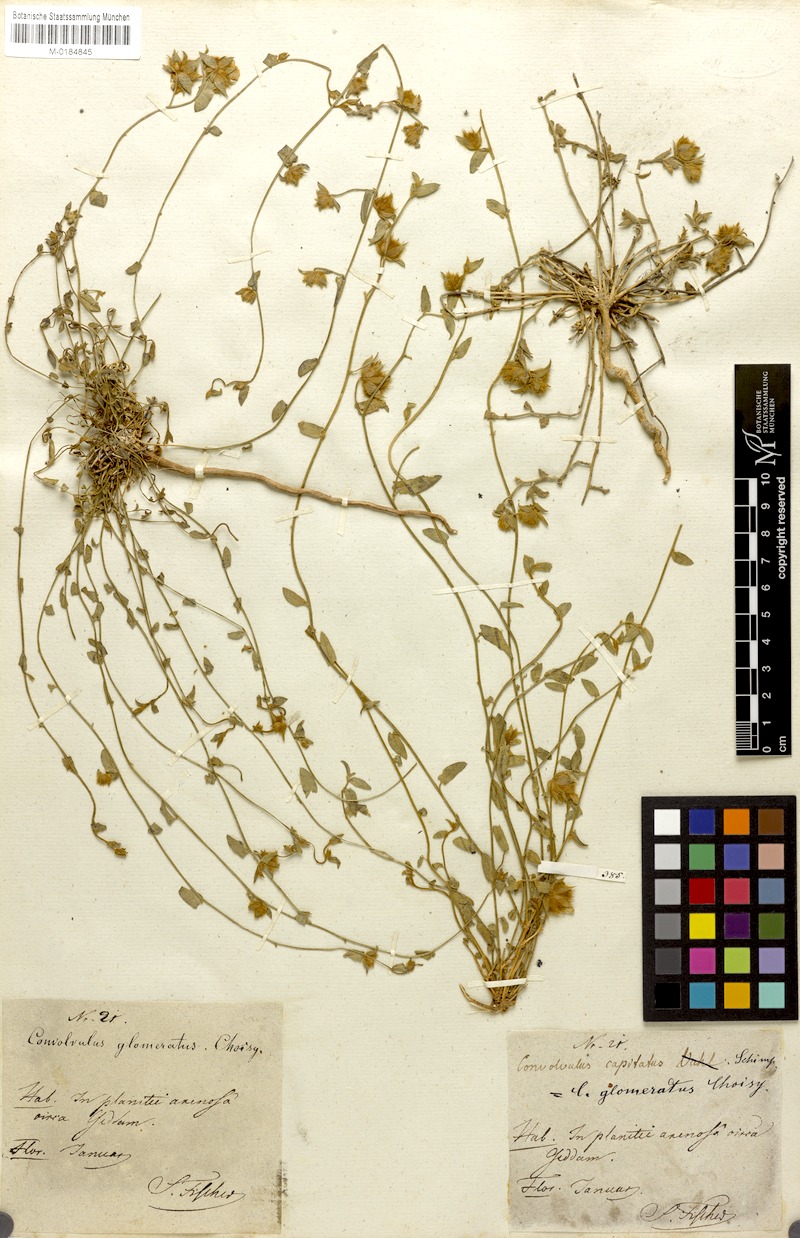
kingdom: Plantae
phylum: Tracheophyta
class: Magnoliopsida
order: Solanales
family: Convolvulaceae
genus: Convolvulus
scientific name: Convolvulus glomeratus
